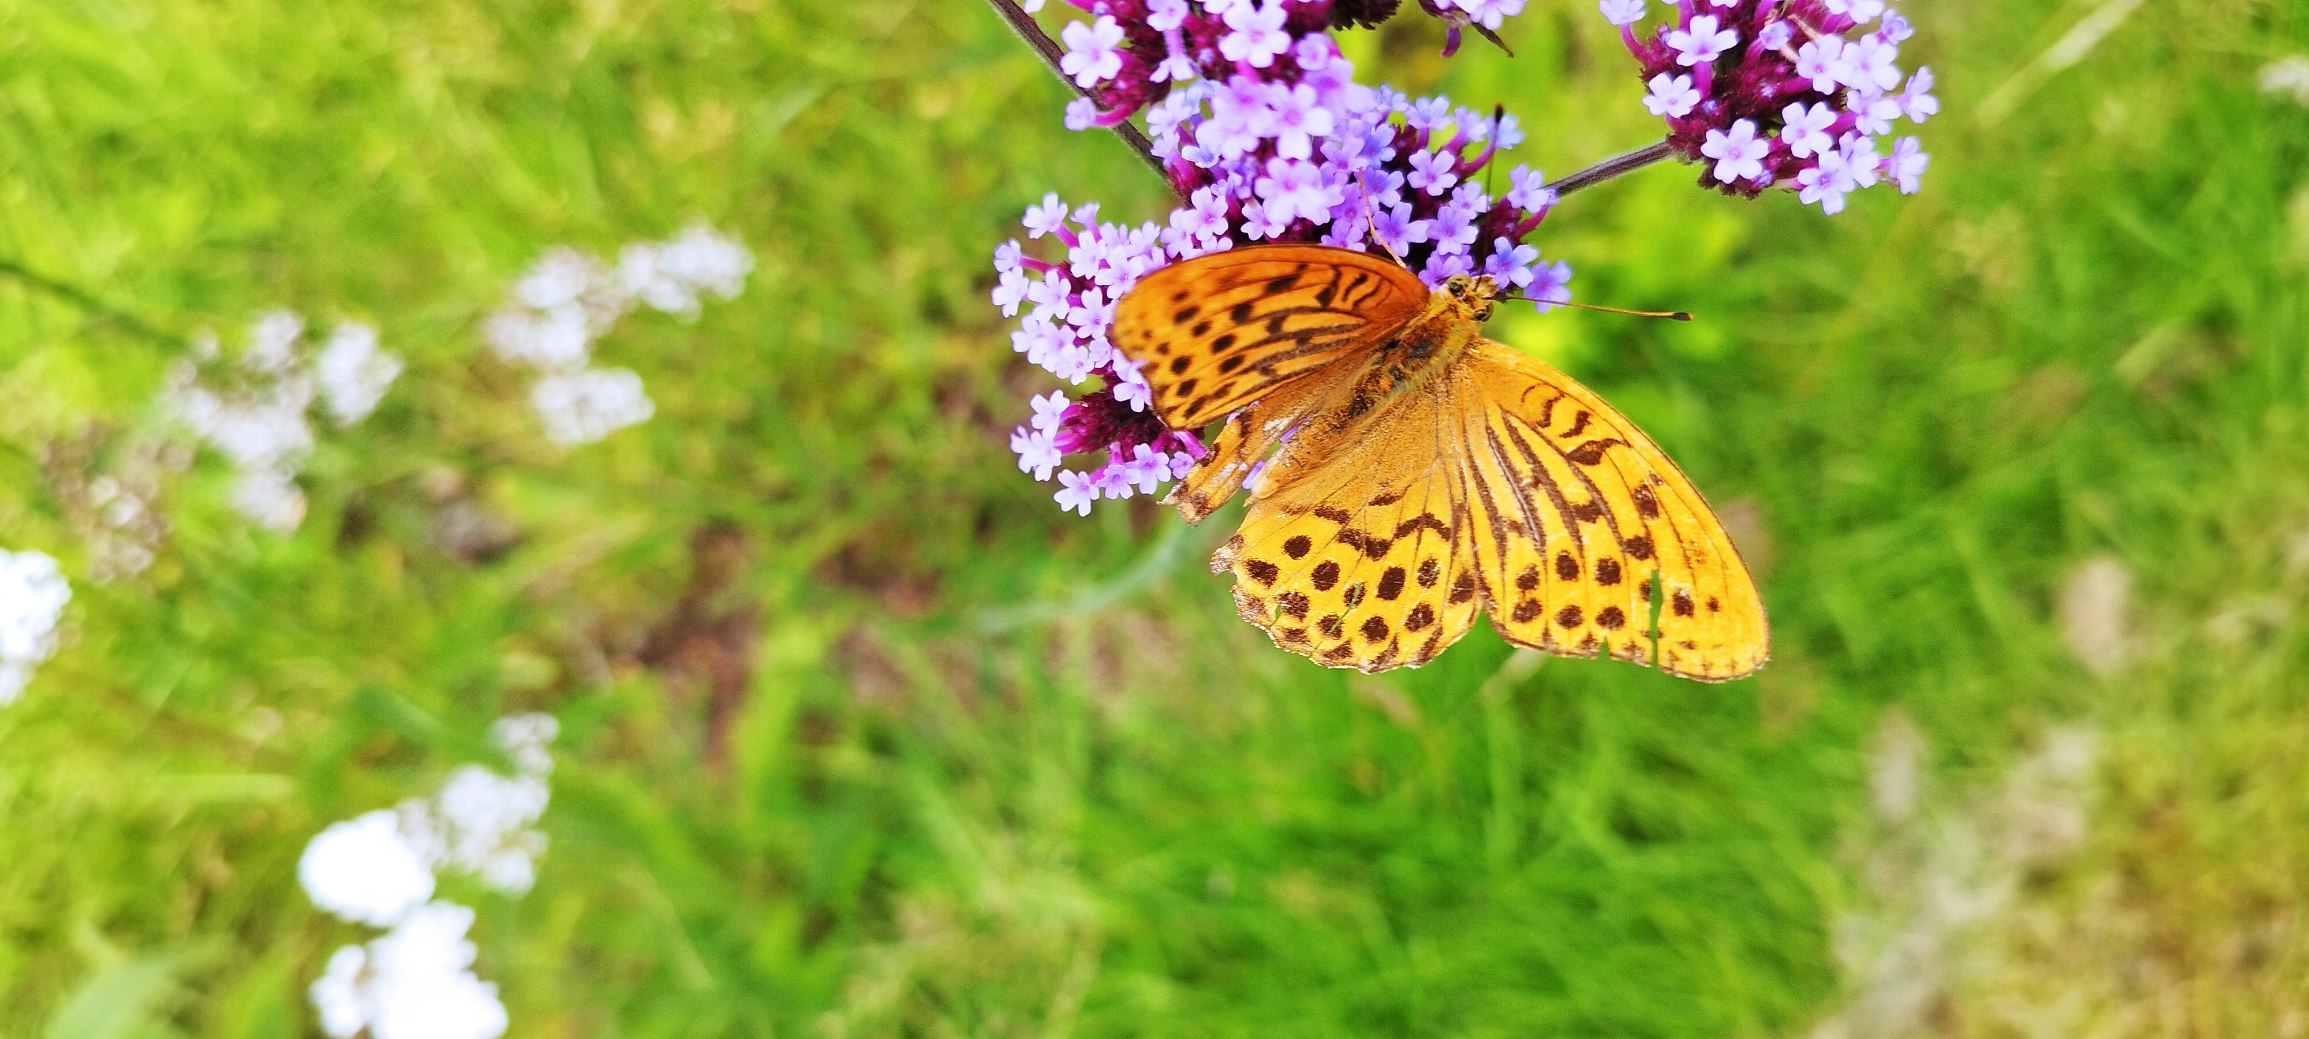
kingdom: Animalia
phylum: Arthropoda
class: Insecta
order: Lepidoptera
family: Nymphalidae
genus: Argynnis
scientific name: Argynnis paphia
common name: Kejserkåbe
